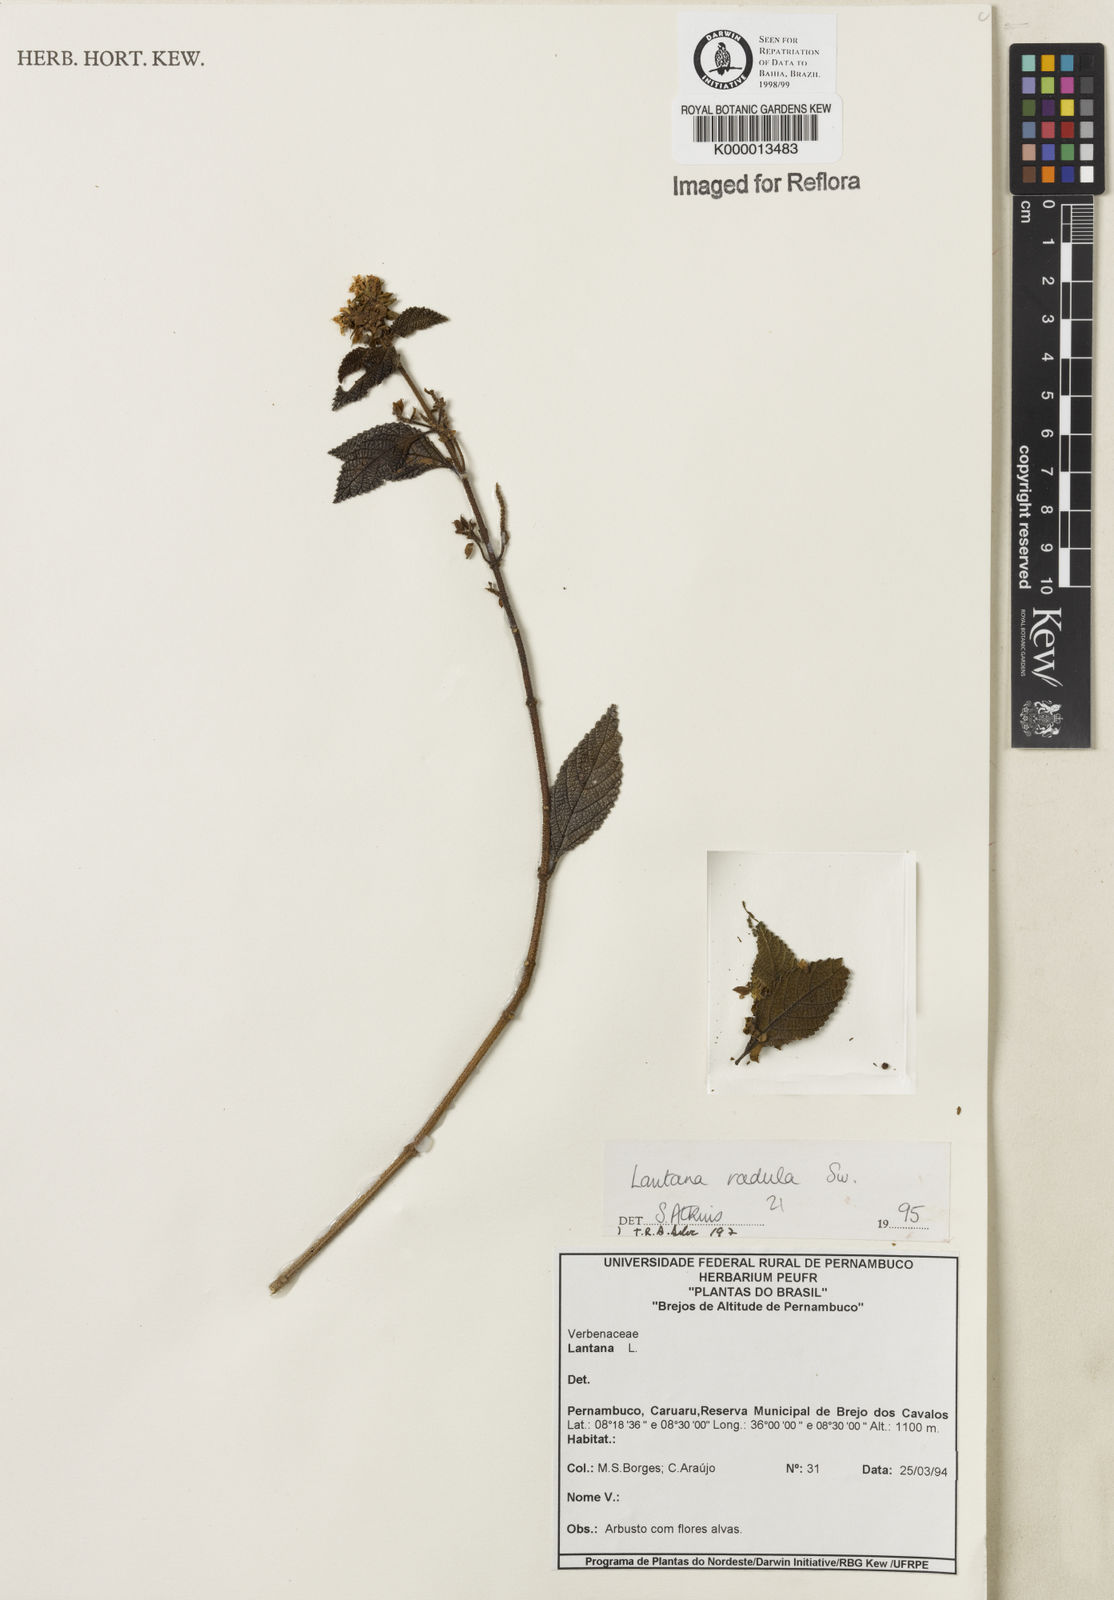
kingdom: Plantae
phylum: Tracheophyta
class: Magnoliopsida
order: Lamiales
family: Verbenaceae
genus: Lantana
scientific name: Lantana radula
